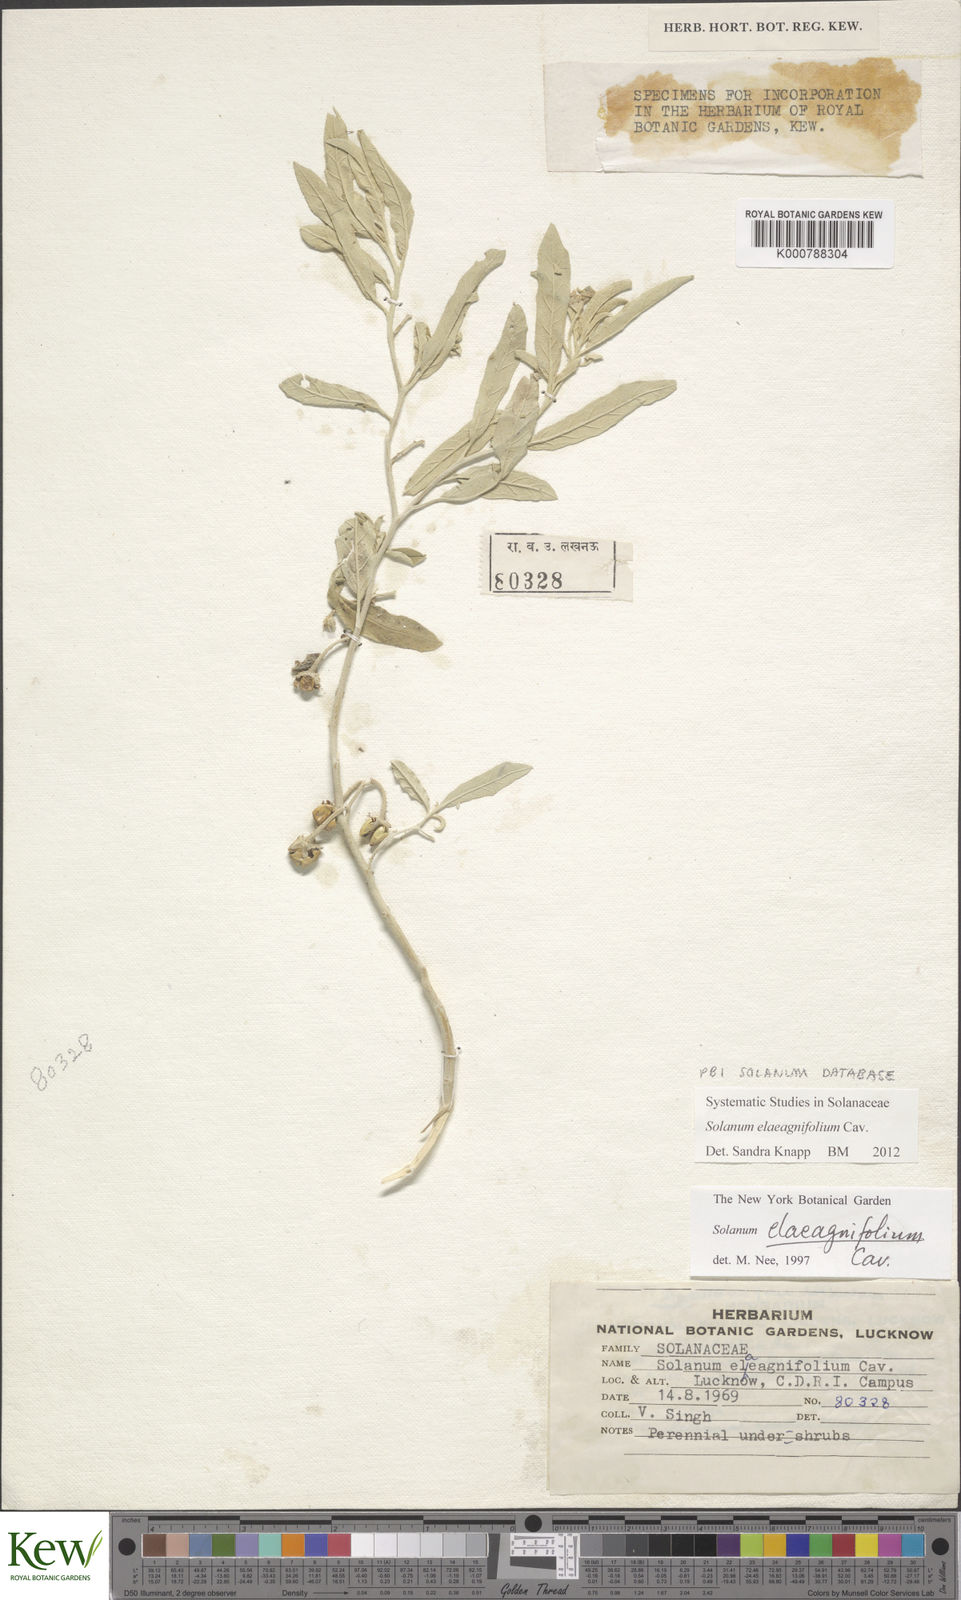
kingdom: Plantae
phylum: Tracheophyta
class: Magnoliopsida
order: Solanales
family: Solanaceae
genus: Solanum
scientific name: Solanum elaeagnifolium
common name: Silverleaf nightshade
